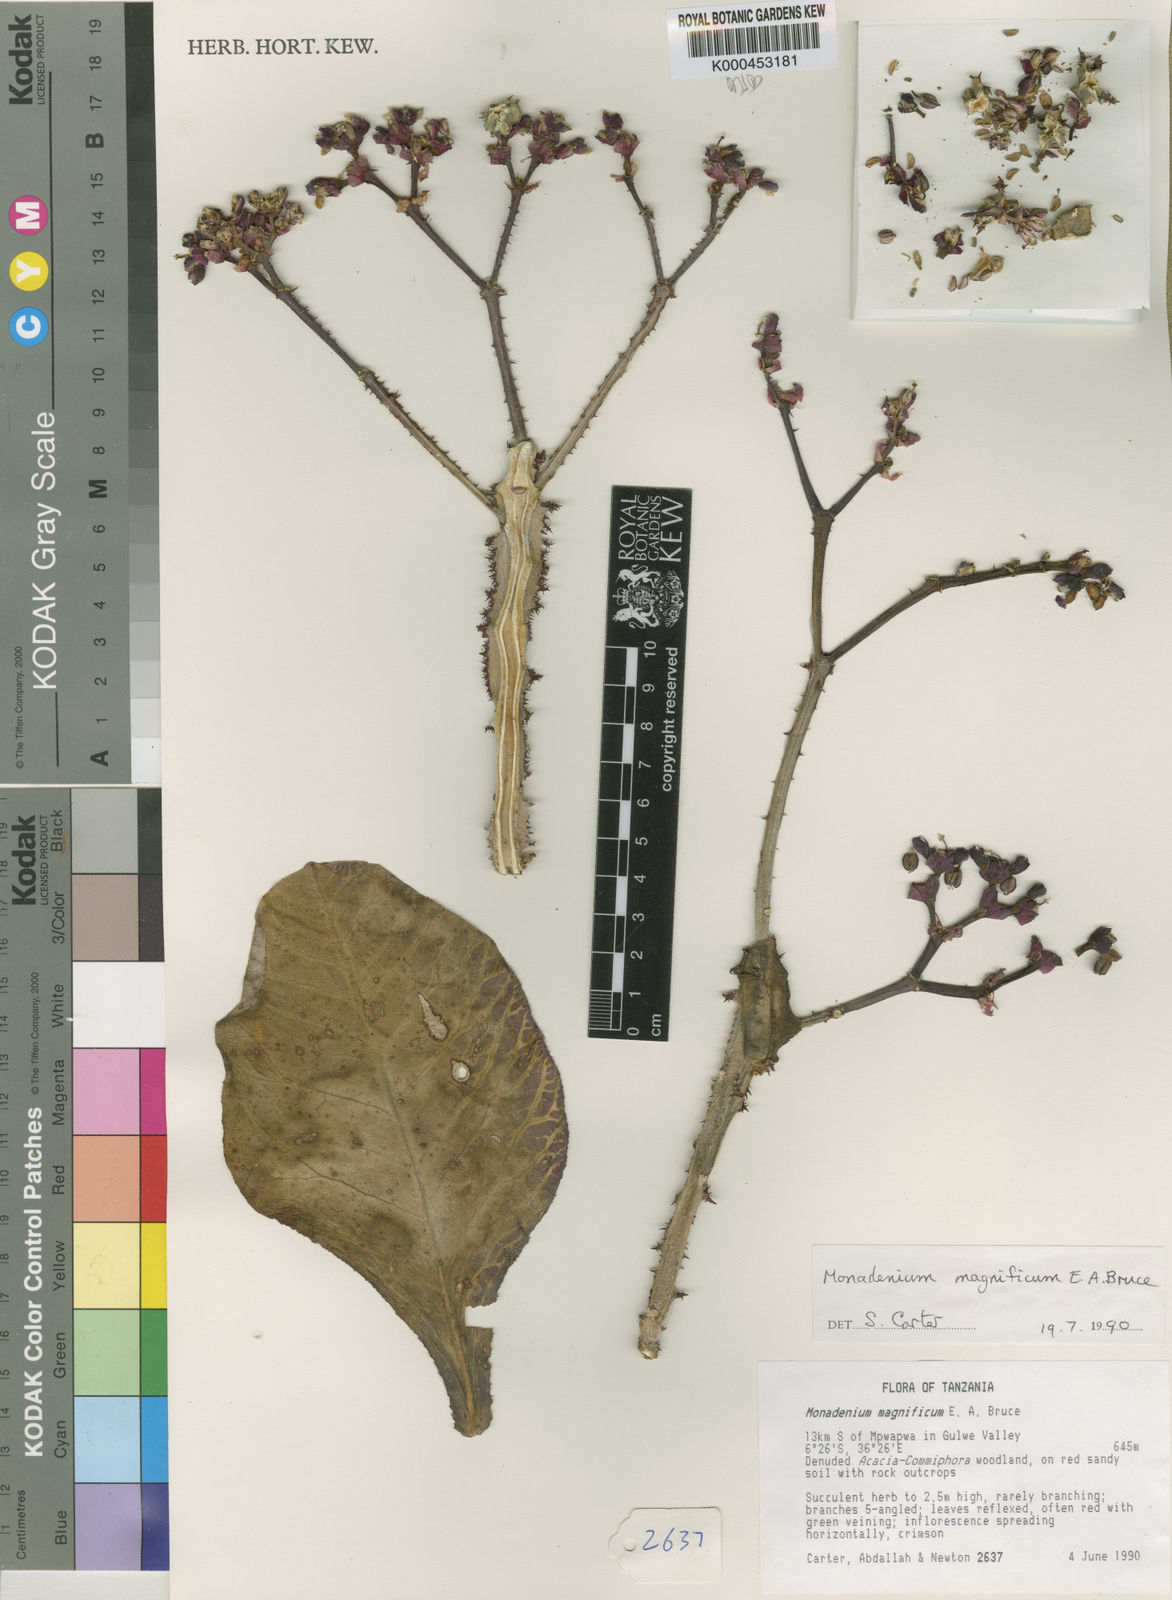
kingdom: Plantae
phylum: Tracheophyta
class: Magnoliopsida
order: Malpighiales
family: Euphorbiaceae
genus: Euphorbia
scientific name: Euphorbia magnifica
